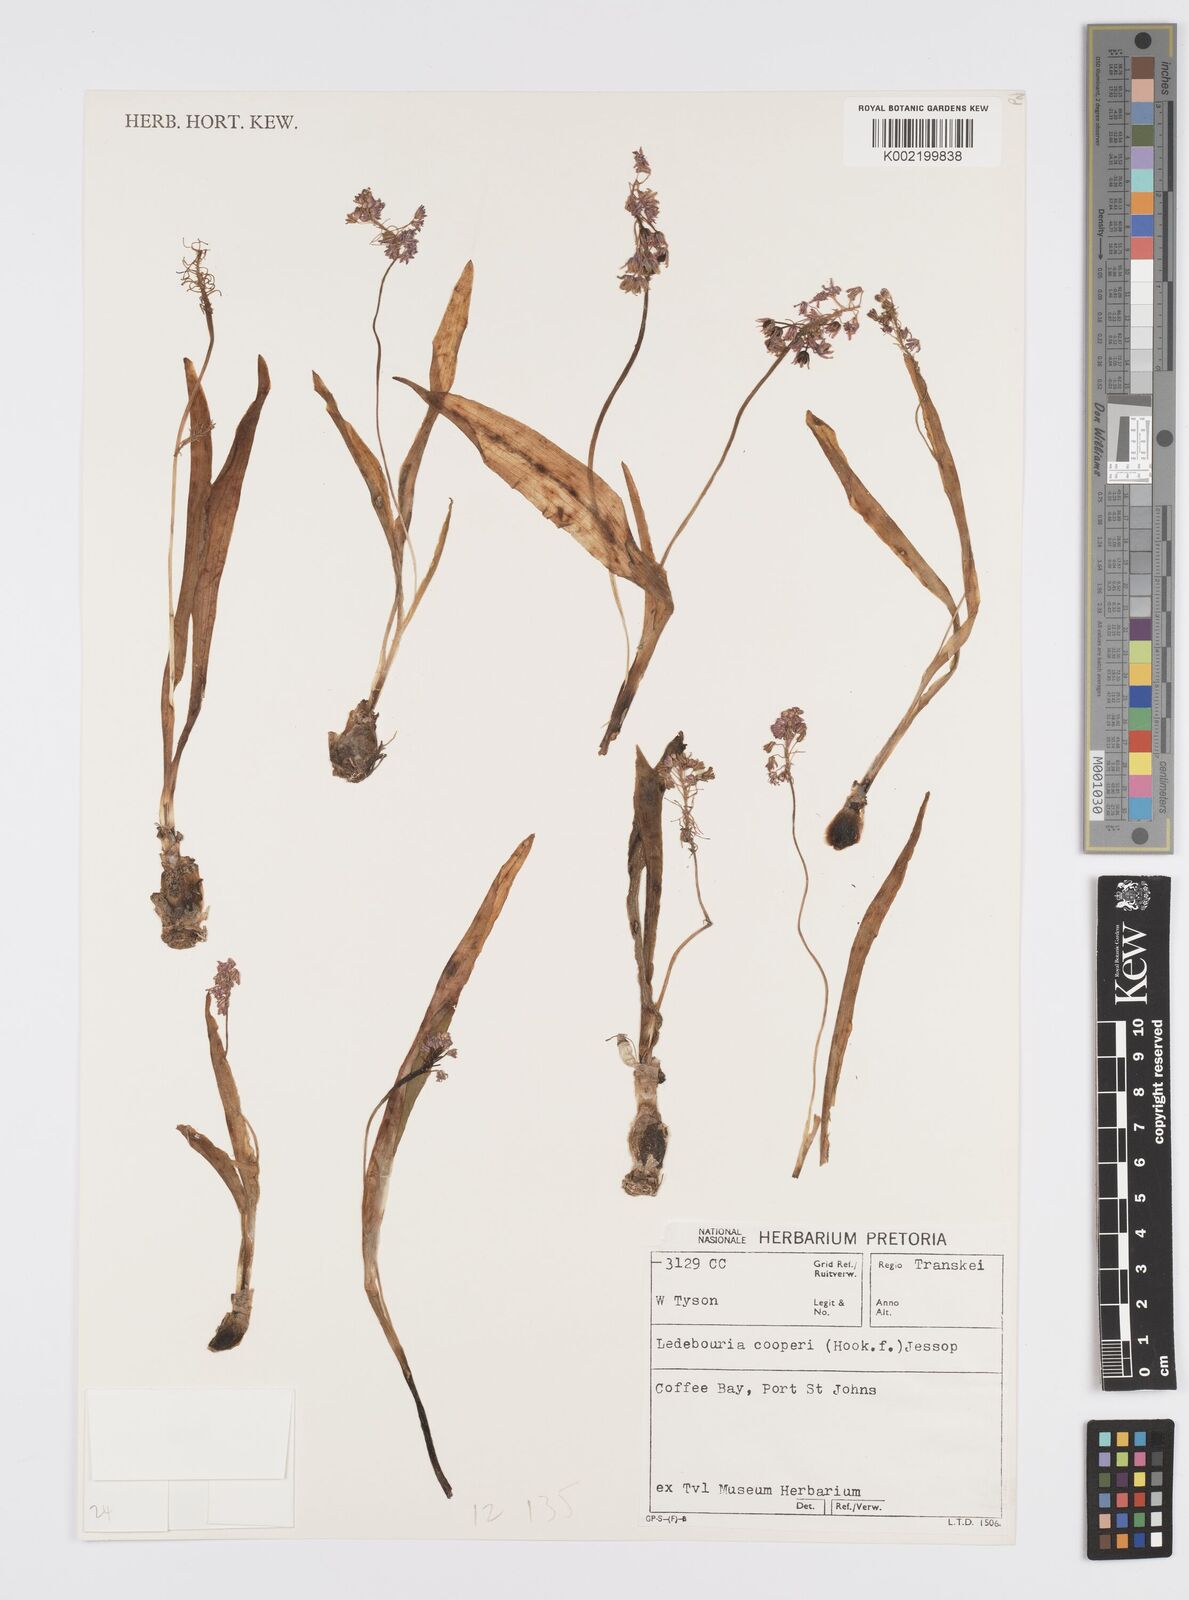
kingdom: Plantae
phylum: Tracheophyta
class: Liliopsida
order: Asparagales
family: Asparagaceae
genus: Ledebouria
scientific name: Ledebouria cooperi
